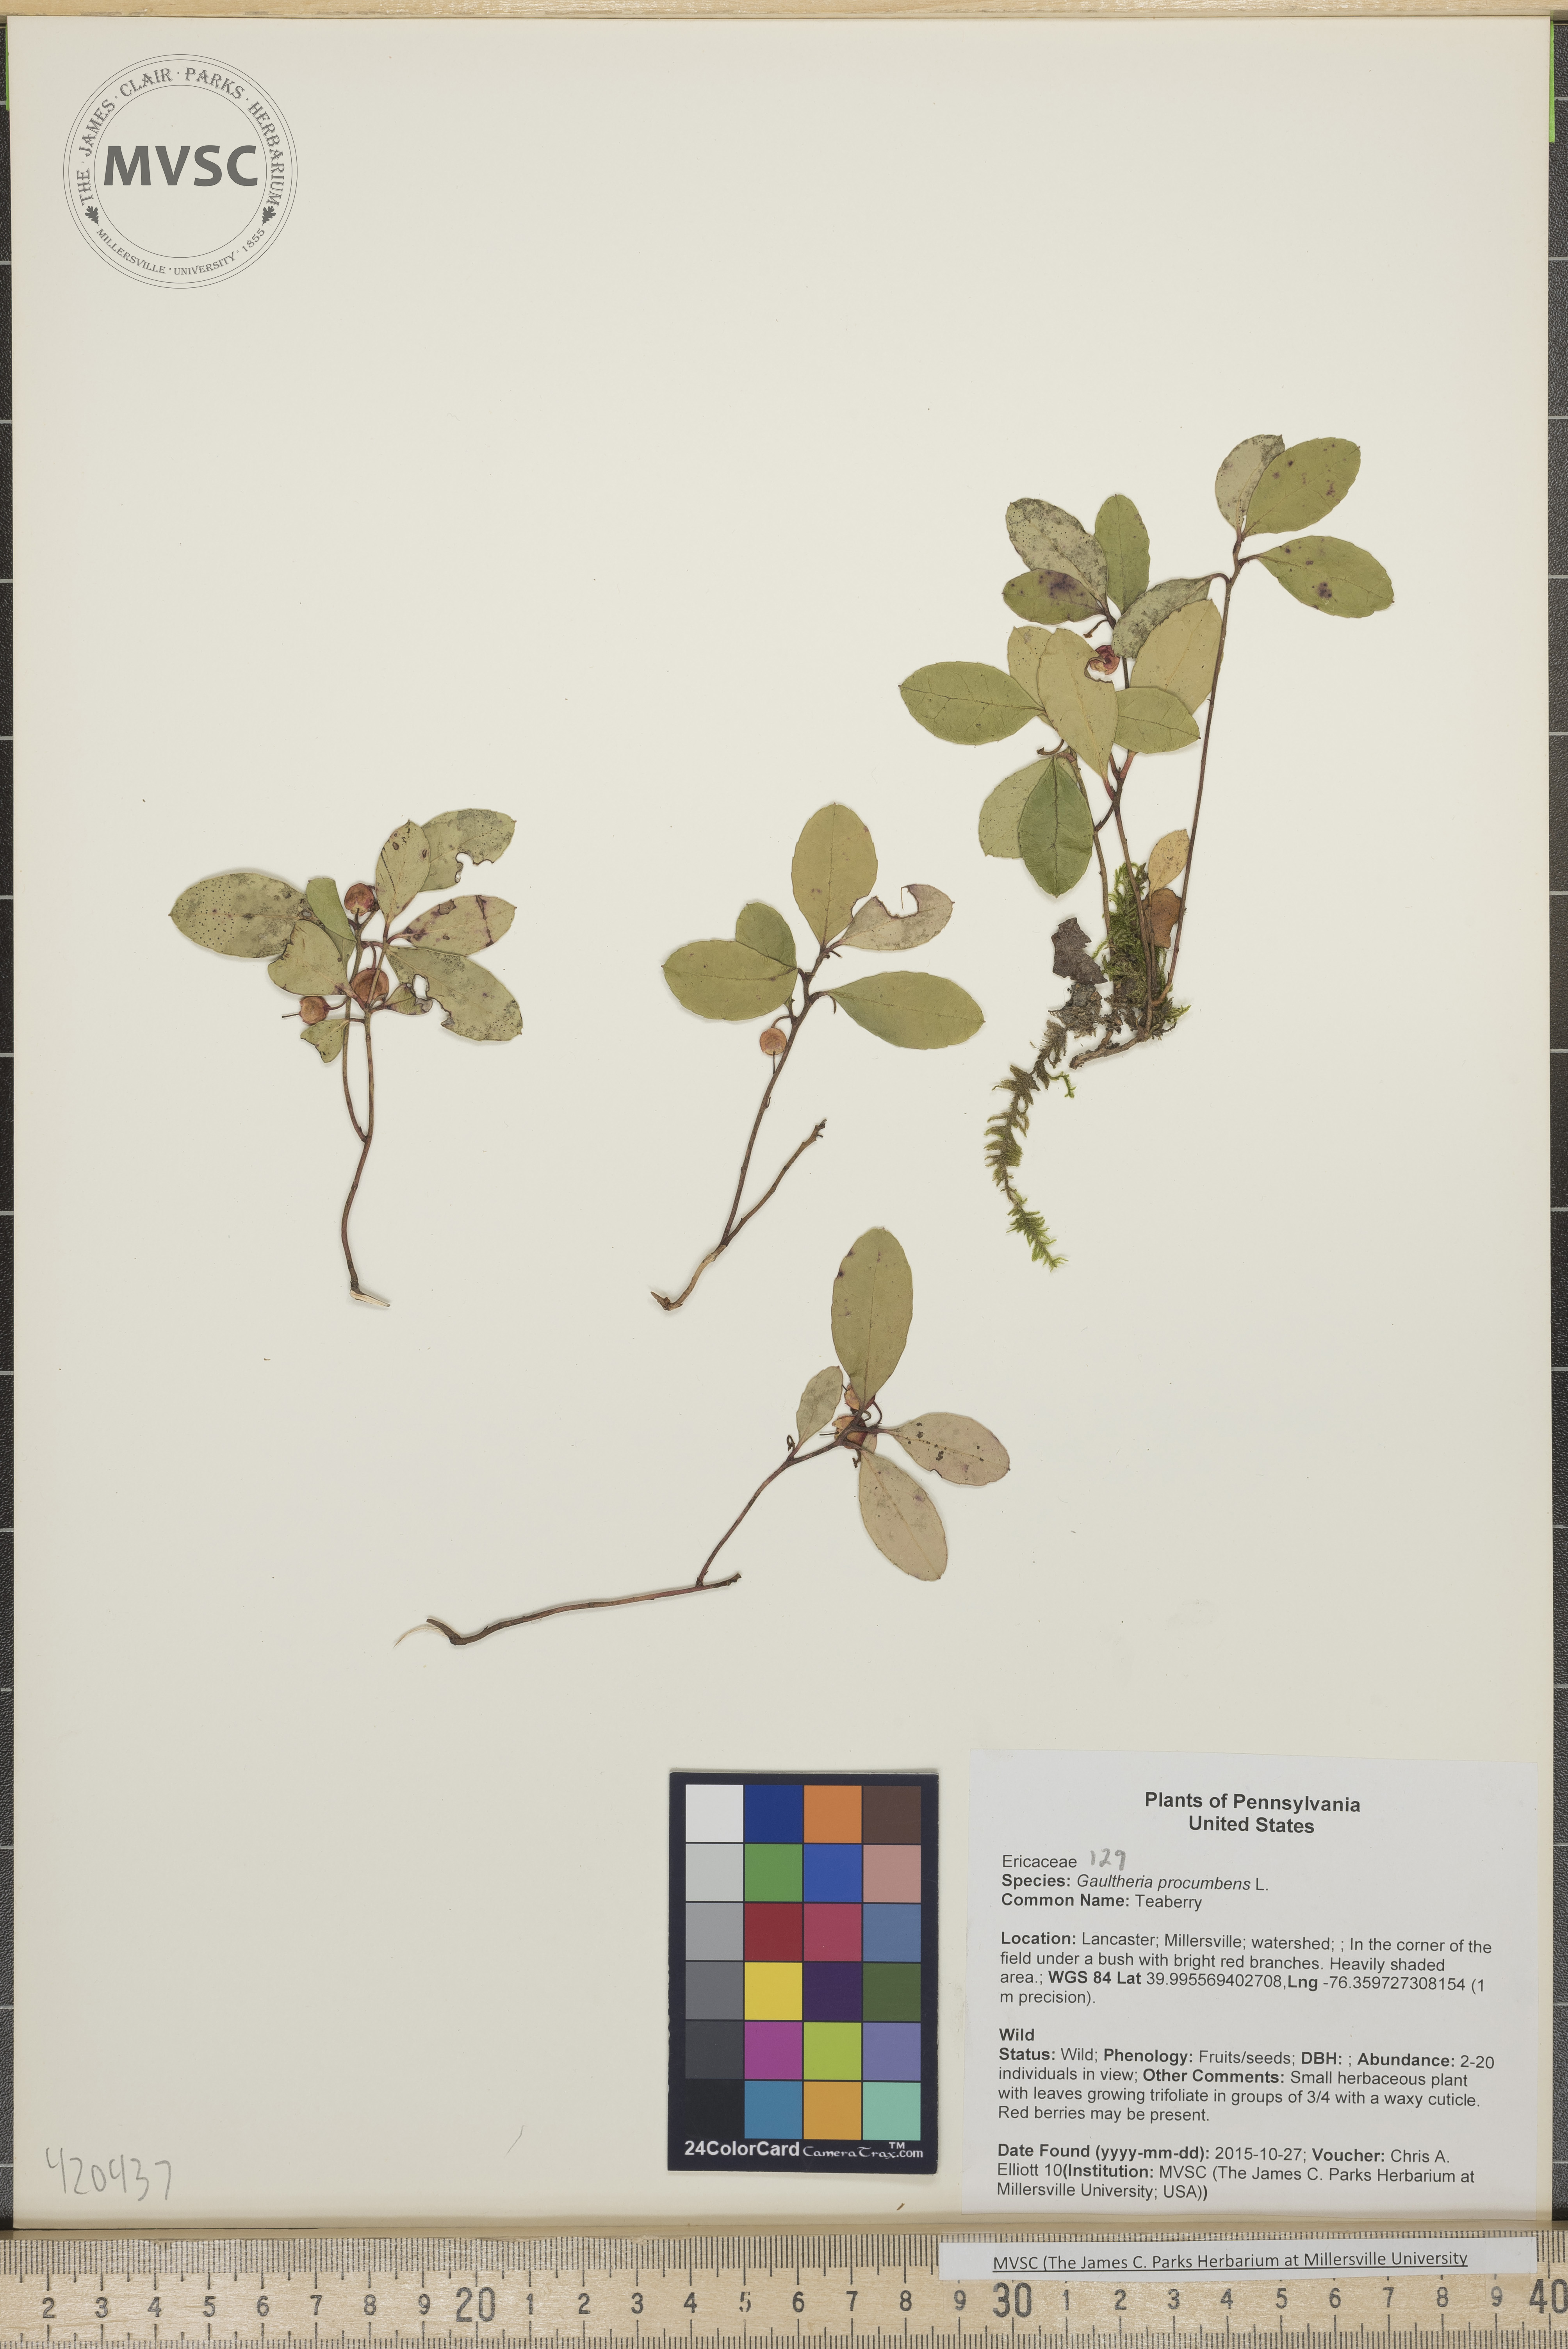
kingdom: Plantae
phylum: Tracheophyta
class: Magnoliopsida
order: Ericales
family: Ericaceae
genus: Gaultheria
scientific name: Gaultheria procumbens
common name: Teaberry
